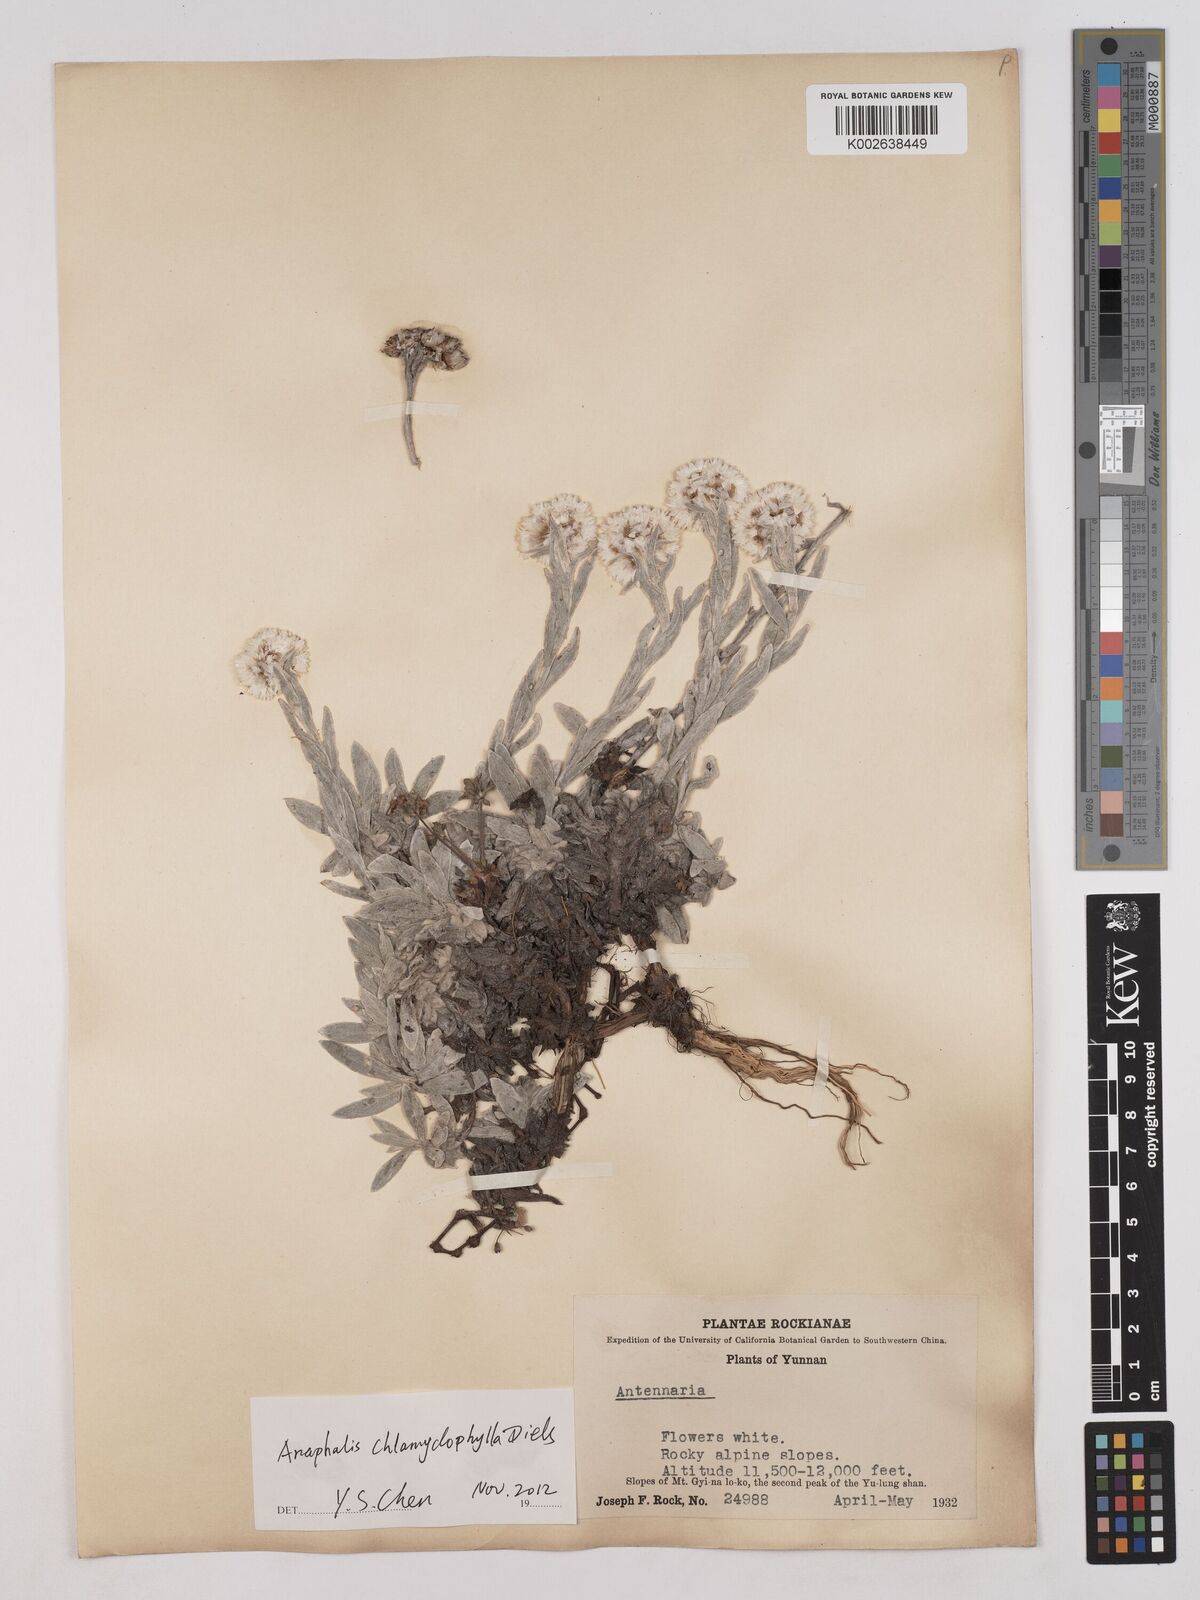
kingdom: Plantae
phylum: Tracheophyta
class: Magnoliopsida
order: Asterales
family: Asteraceae
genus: Anaphalis
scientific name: Anaphalis rhododactyla
